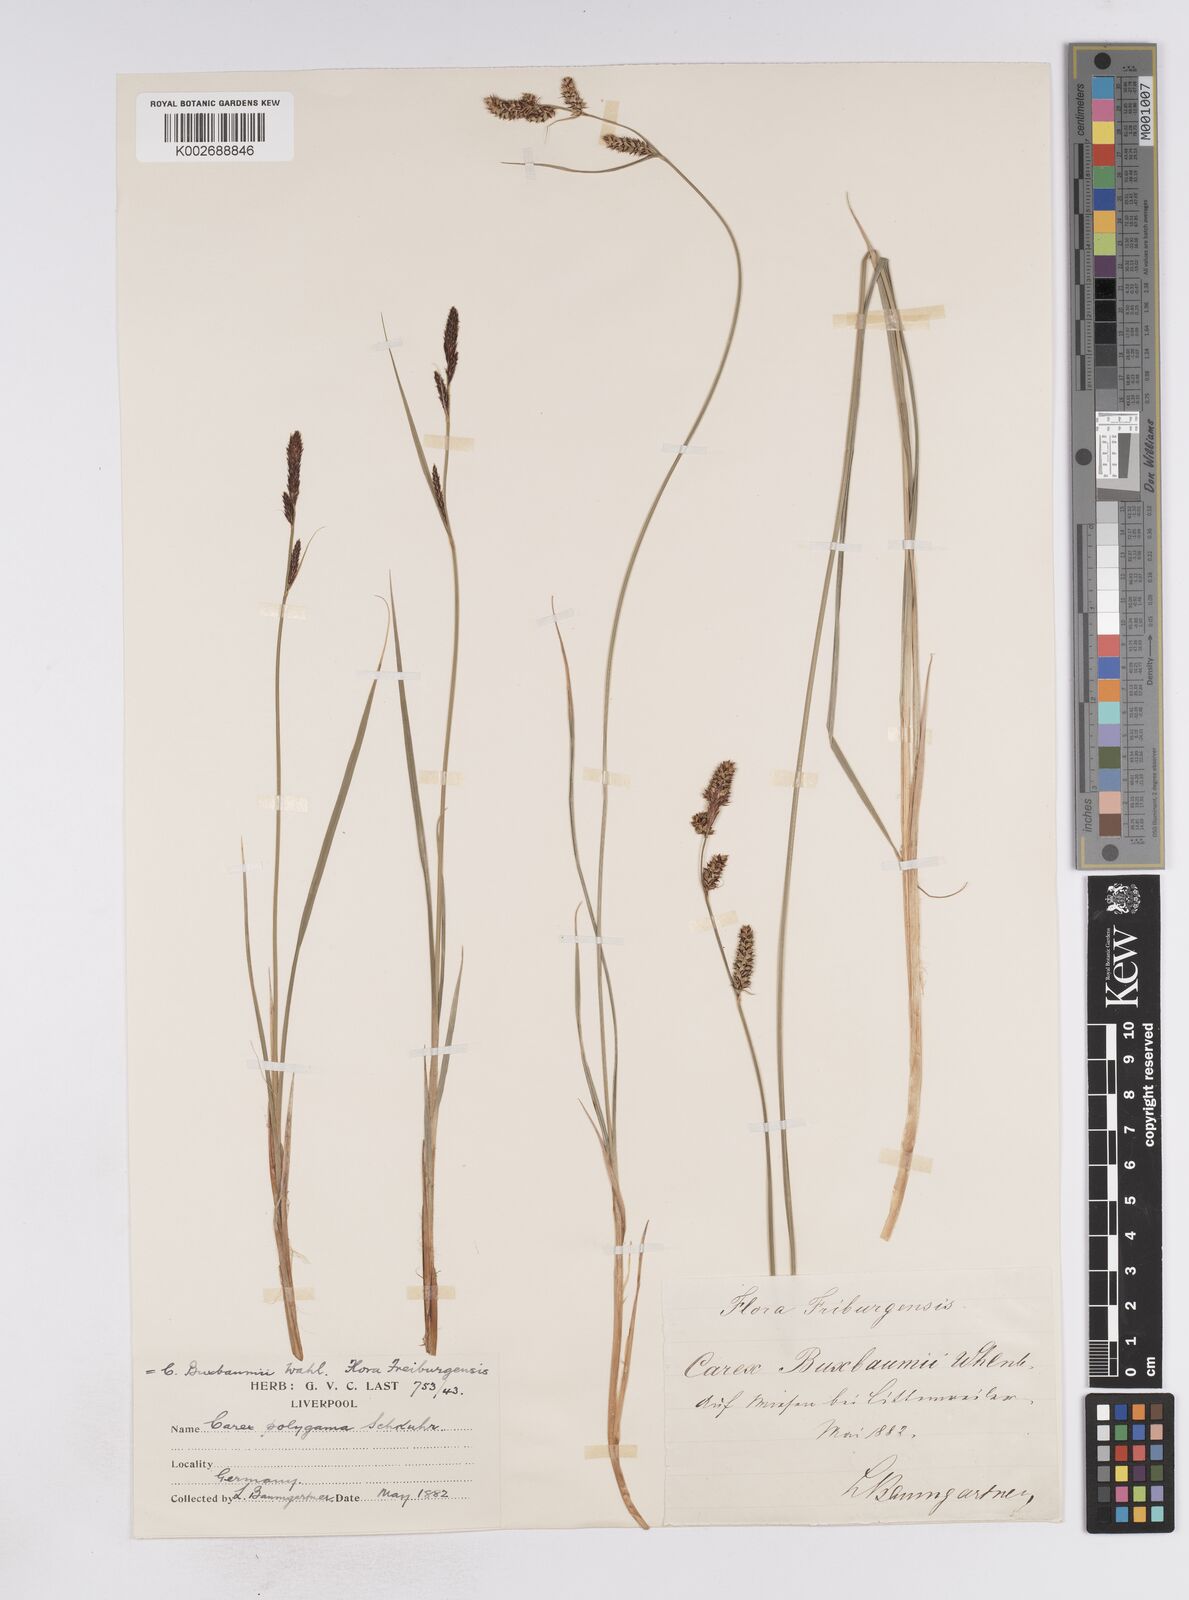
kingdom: Plantae
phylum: Tracheophyta
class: Liliopsida
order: Poales
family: Cyperaceae
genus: Carex
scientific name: Carex buxbaumii
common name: Club sedge
